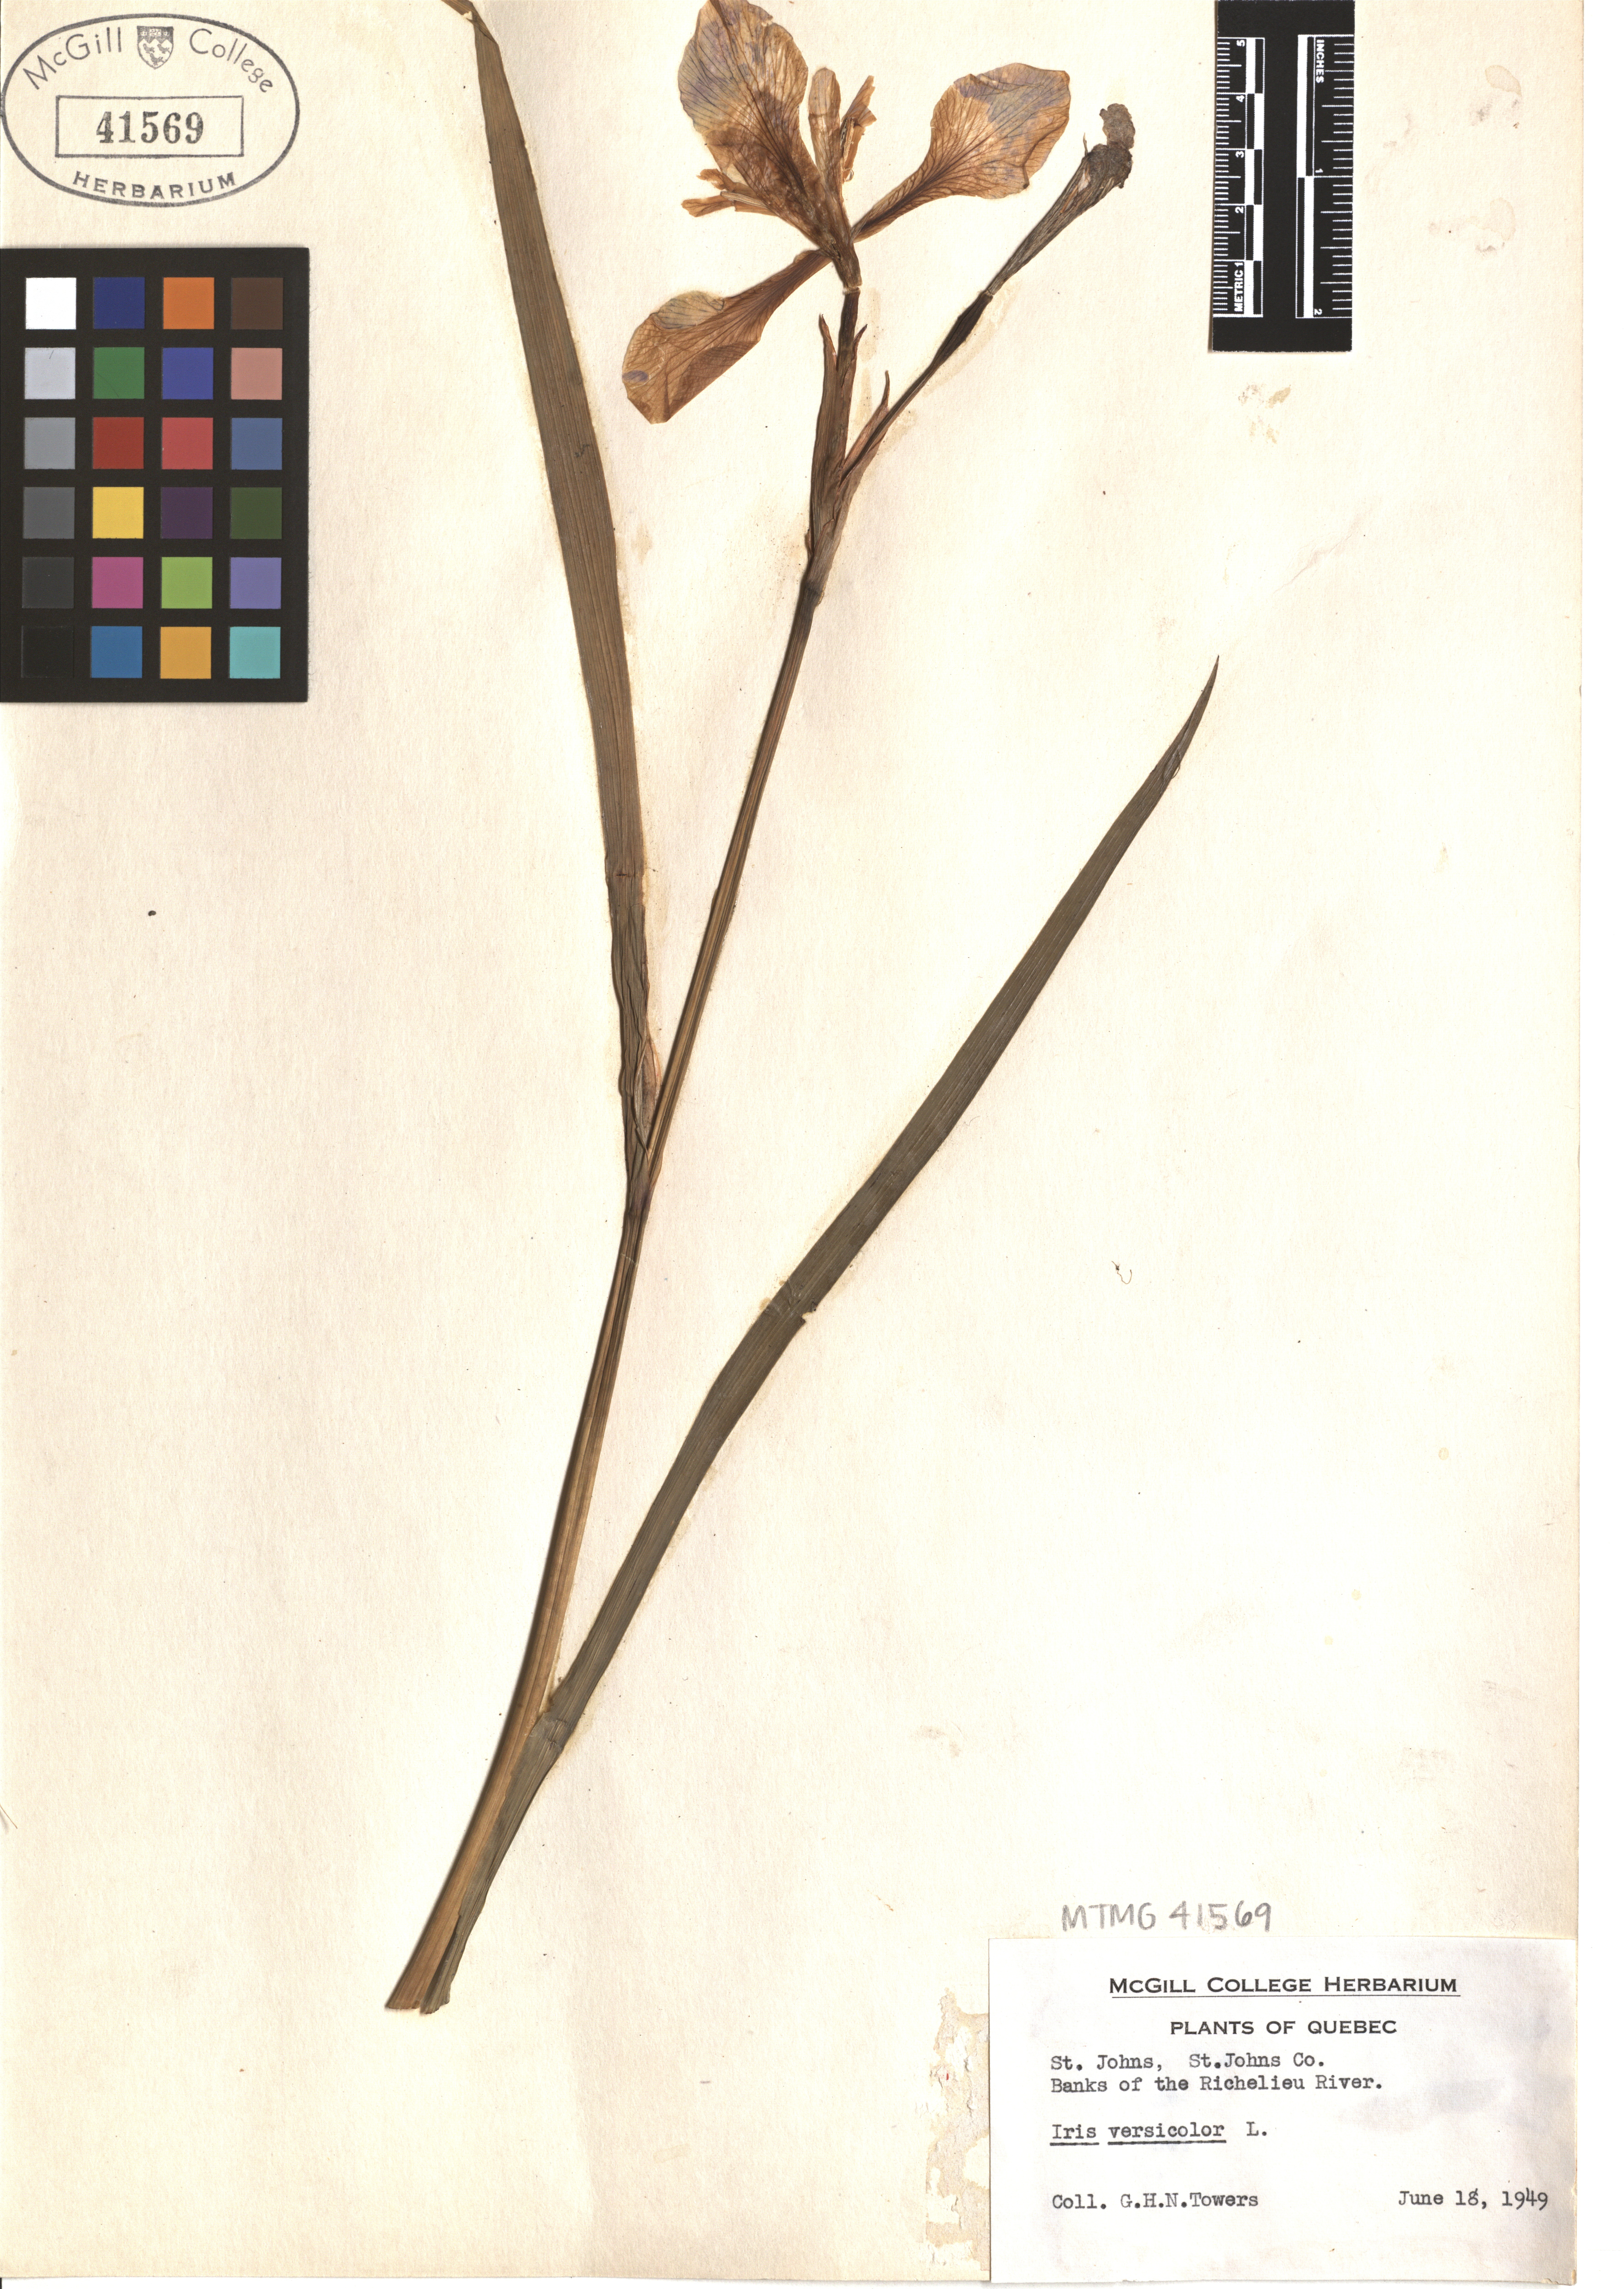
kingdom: Plantae
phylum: Tracheophyta
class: Liliopsida
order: Asparagales
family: Iridaceae
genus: Iris
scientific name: Iris versicolor
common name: Purple iris
